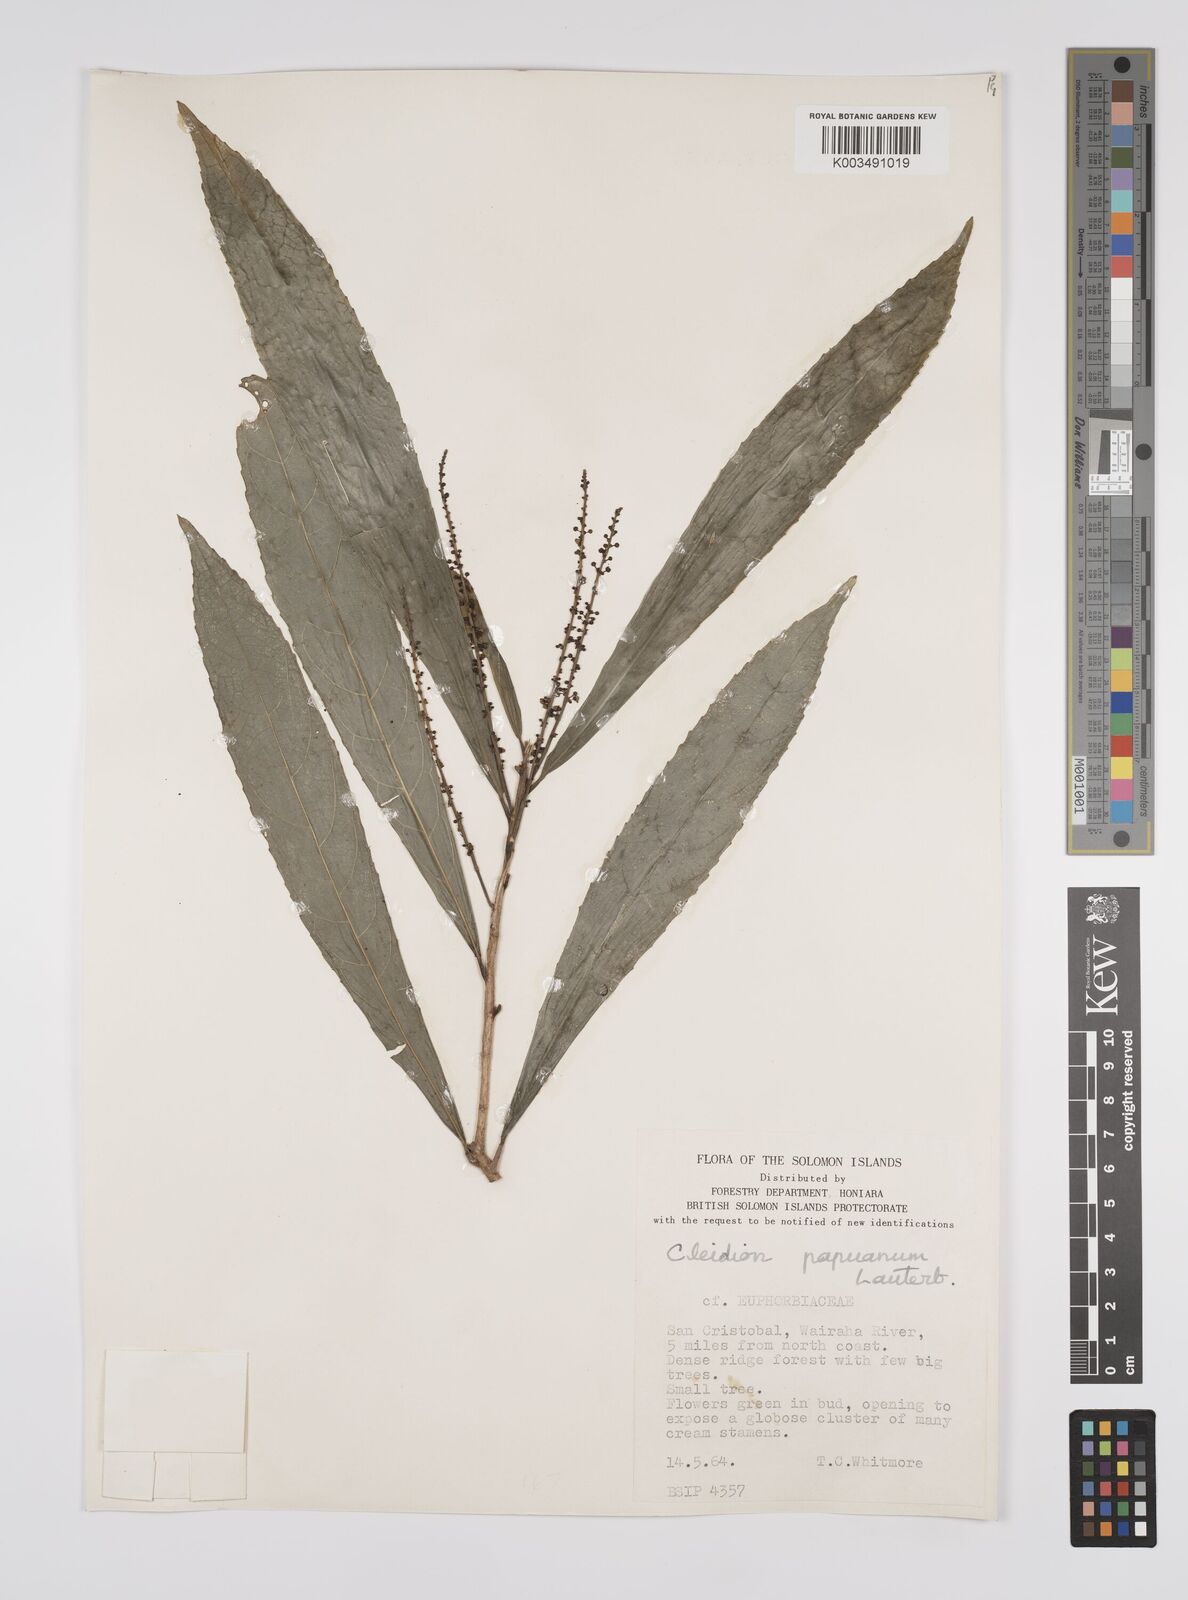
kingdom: Plantae
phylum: Tracheophyta
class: Magnoliopsida
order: Malpighiales
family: Euphorbiaceae
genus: Cleidion
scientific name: Cleidion papuanum
